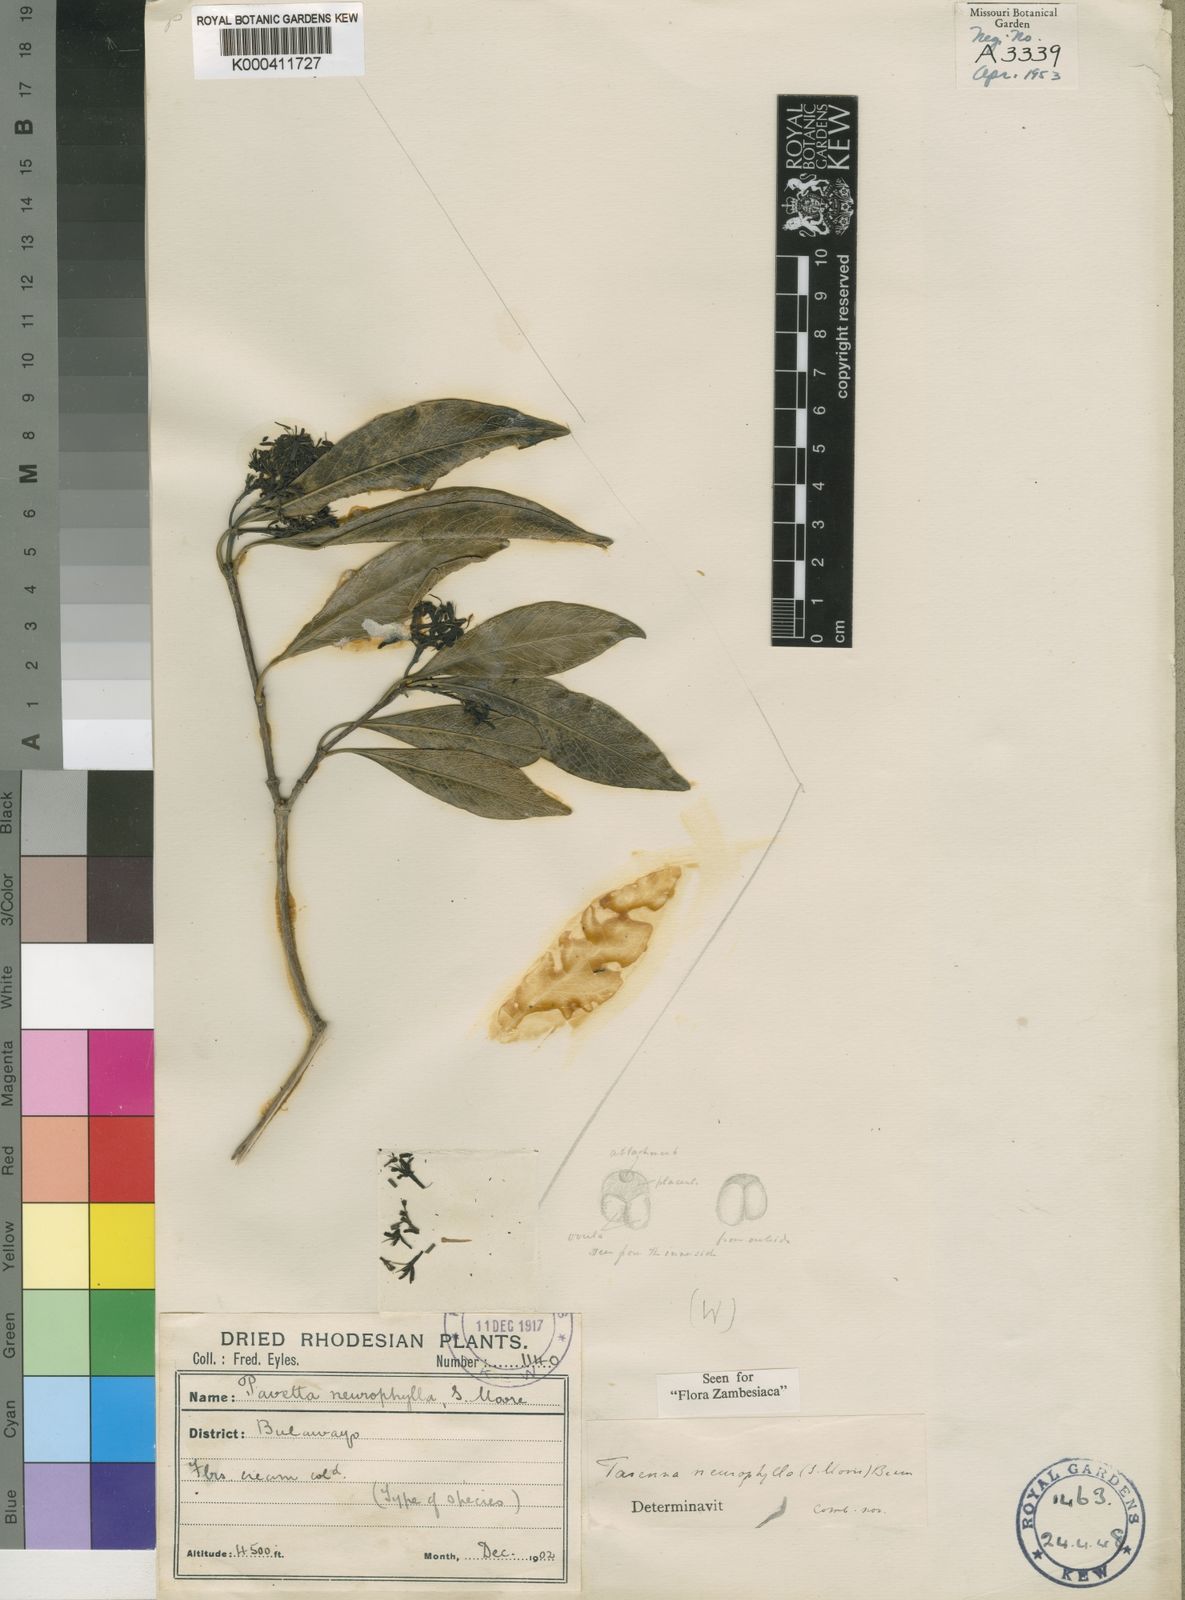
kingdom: Plantae
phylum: Tracheophyta
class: Magnoliopsida
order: Gentianales
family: Rubiaceae
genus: Coptosperma
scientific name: Coptosperma neurophyllum
